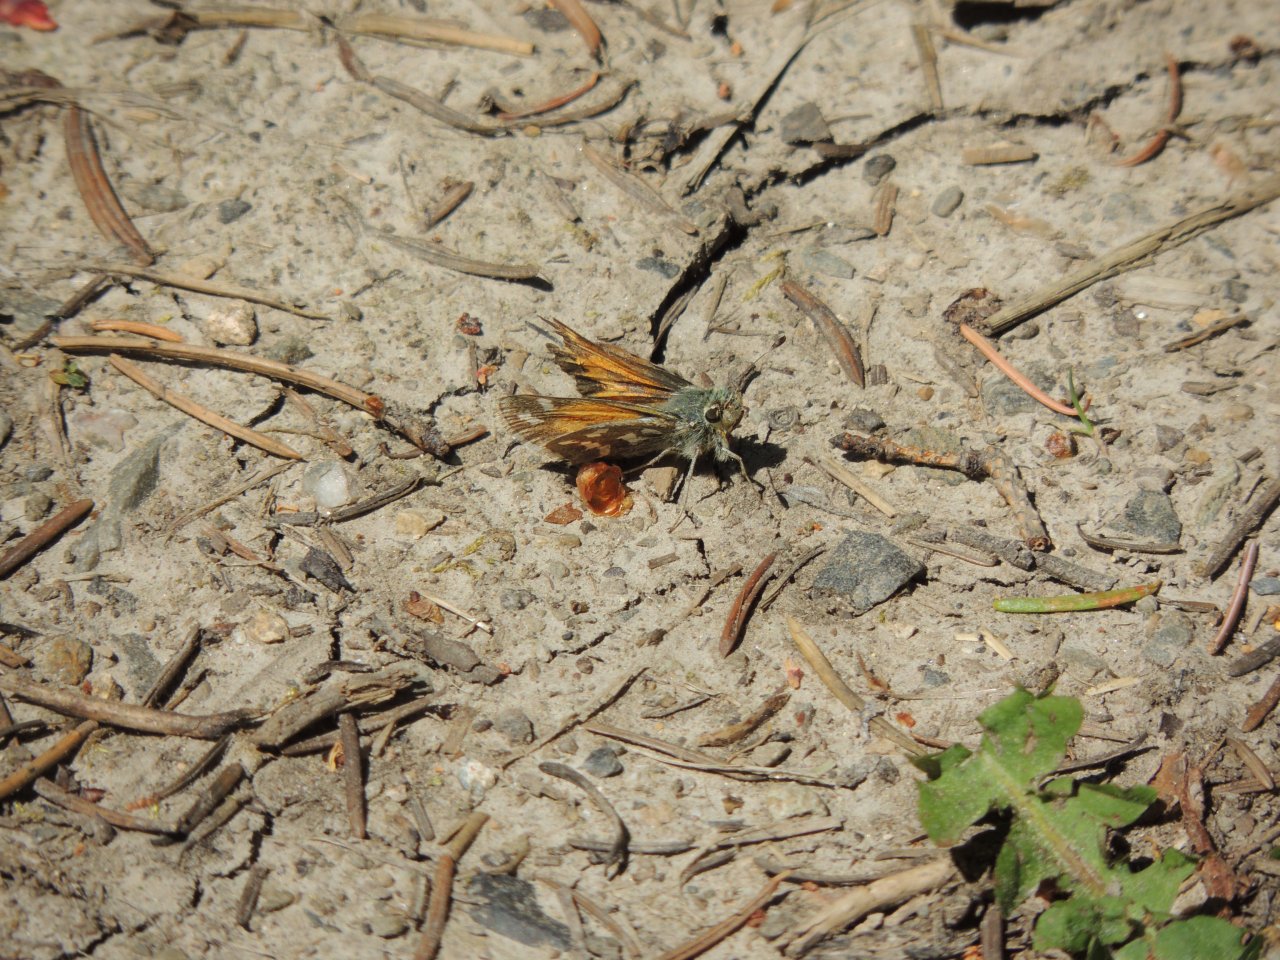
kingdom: Animalia
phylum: Arthropoda
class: Insecta
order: Lepidoptera
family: Hesperiidae
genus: Hesperia
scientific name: Hesperia juba
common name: Juba Skipper
